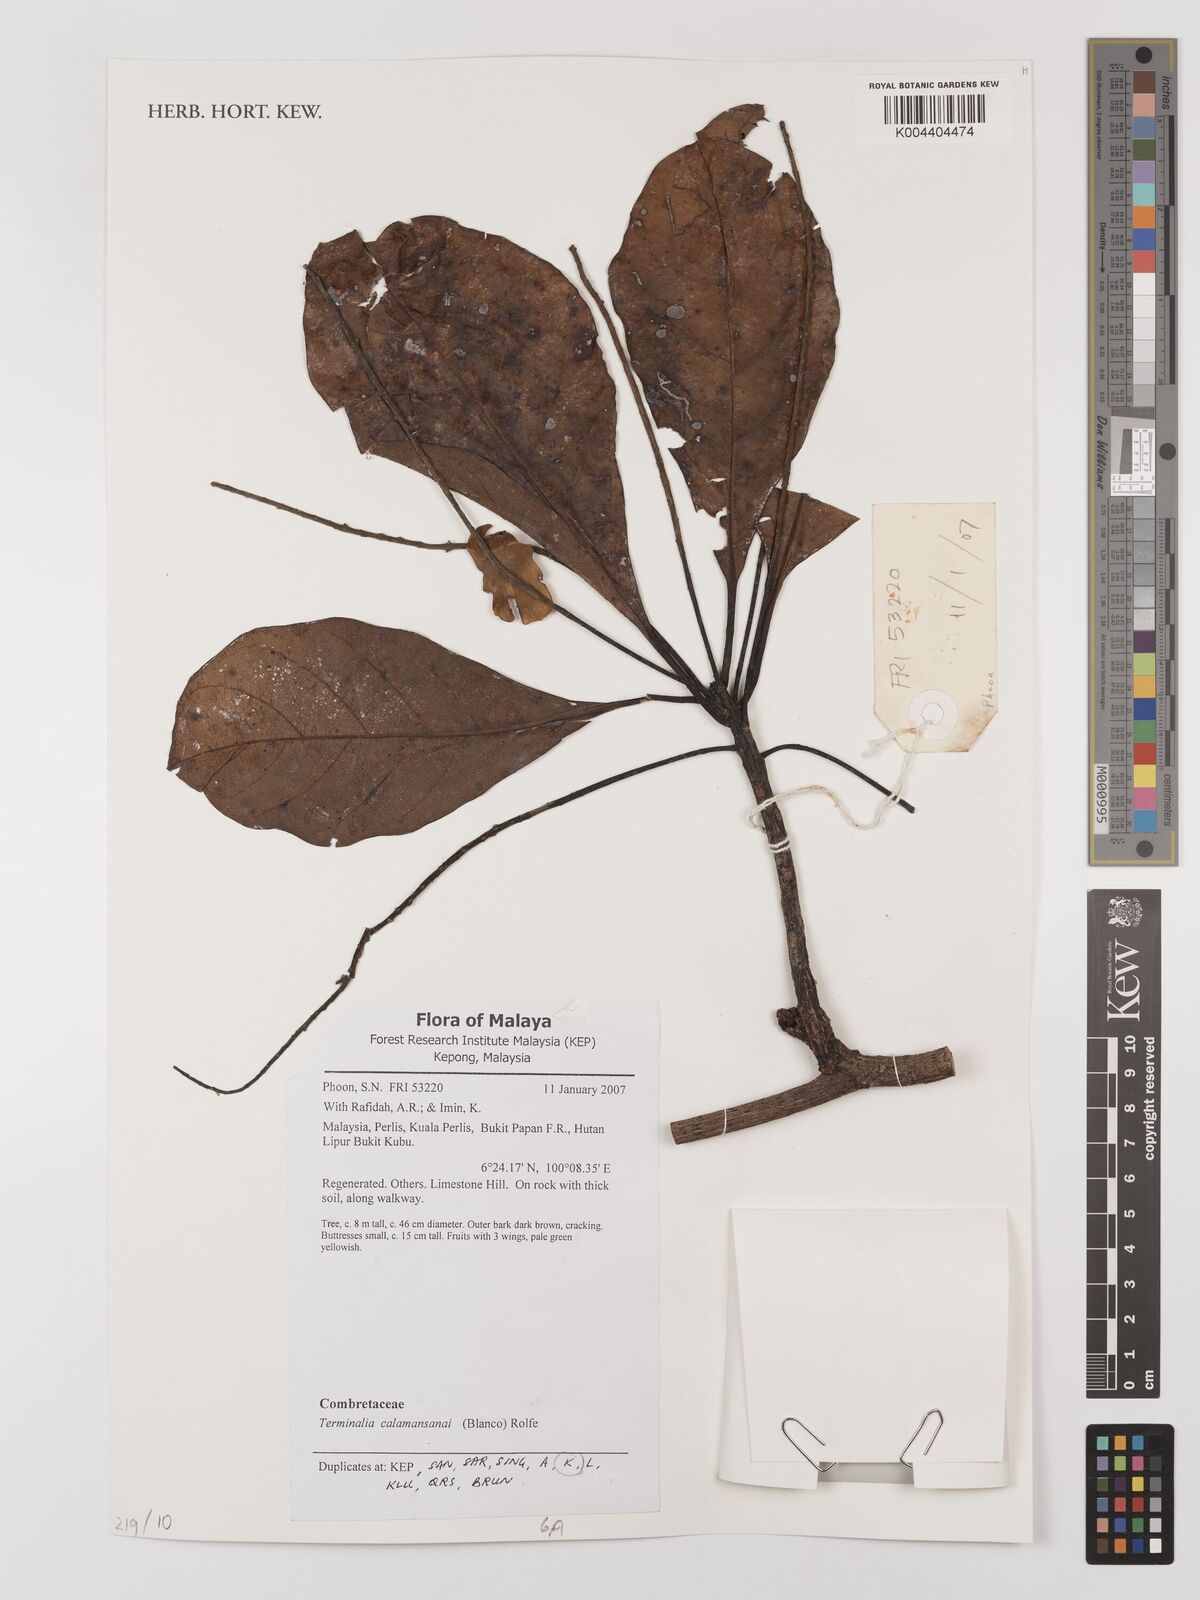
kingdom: Plantae
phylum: Tracheophyta
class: Magnoliopsida
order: Myrtales
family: Combretaceae
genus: Terminalia
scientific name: Terminalia calamansanai
